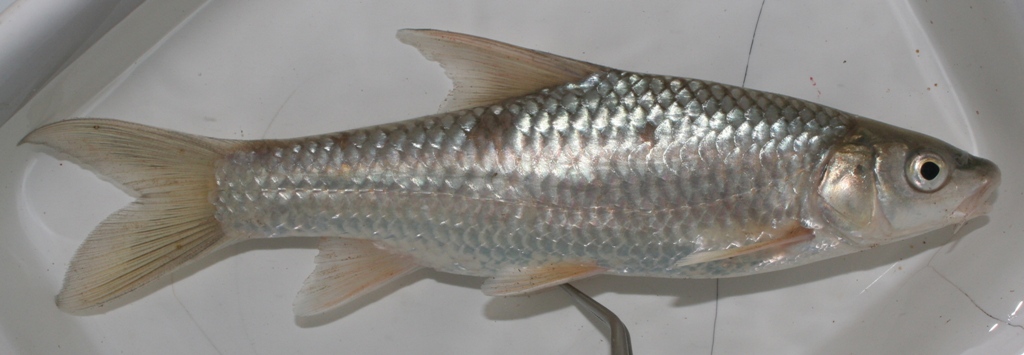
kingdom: Animalia
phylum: Chordata
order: Cypriniformes
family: Cyprinidae
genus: Labeobarbus
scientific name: Labeobarbus natalensis
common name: Scaly
